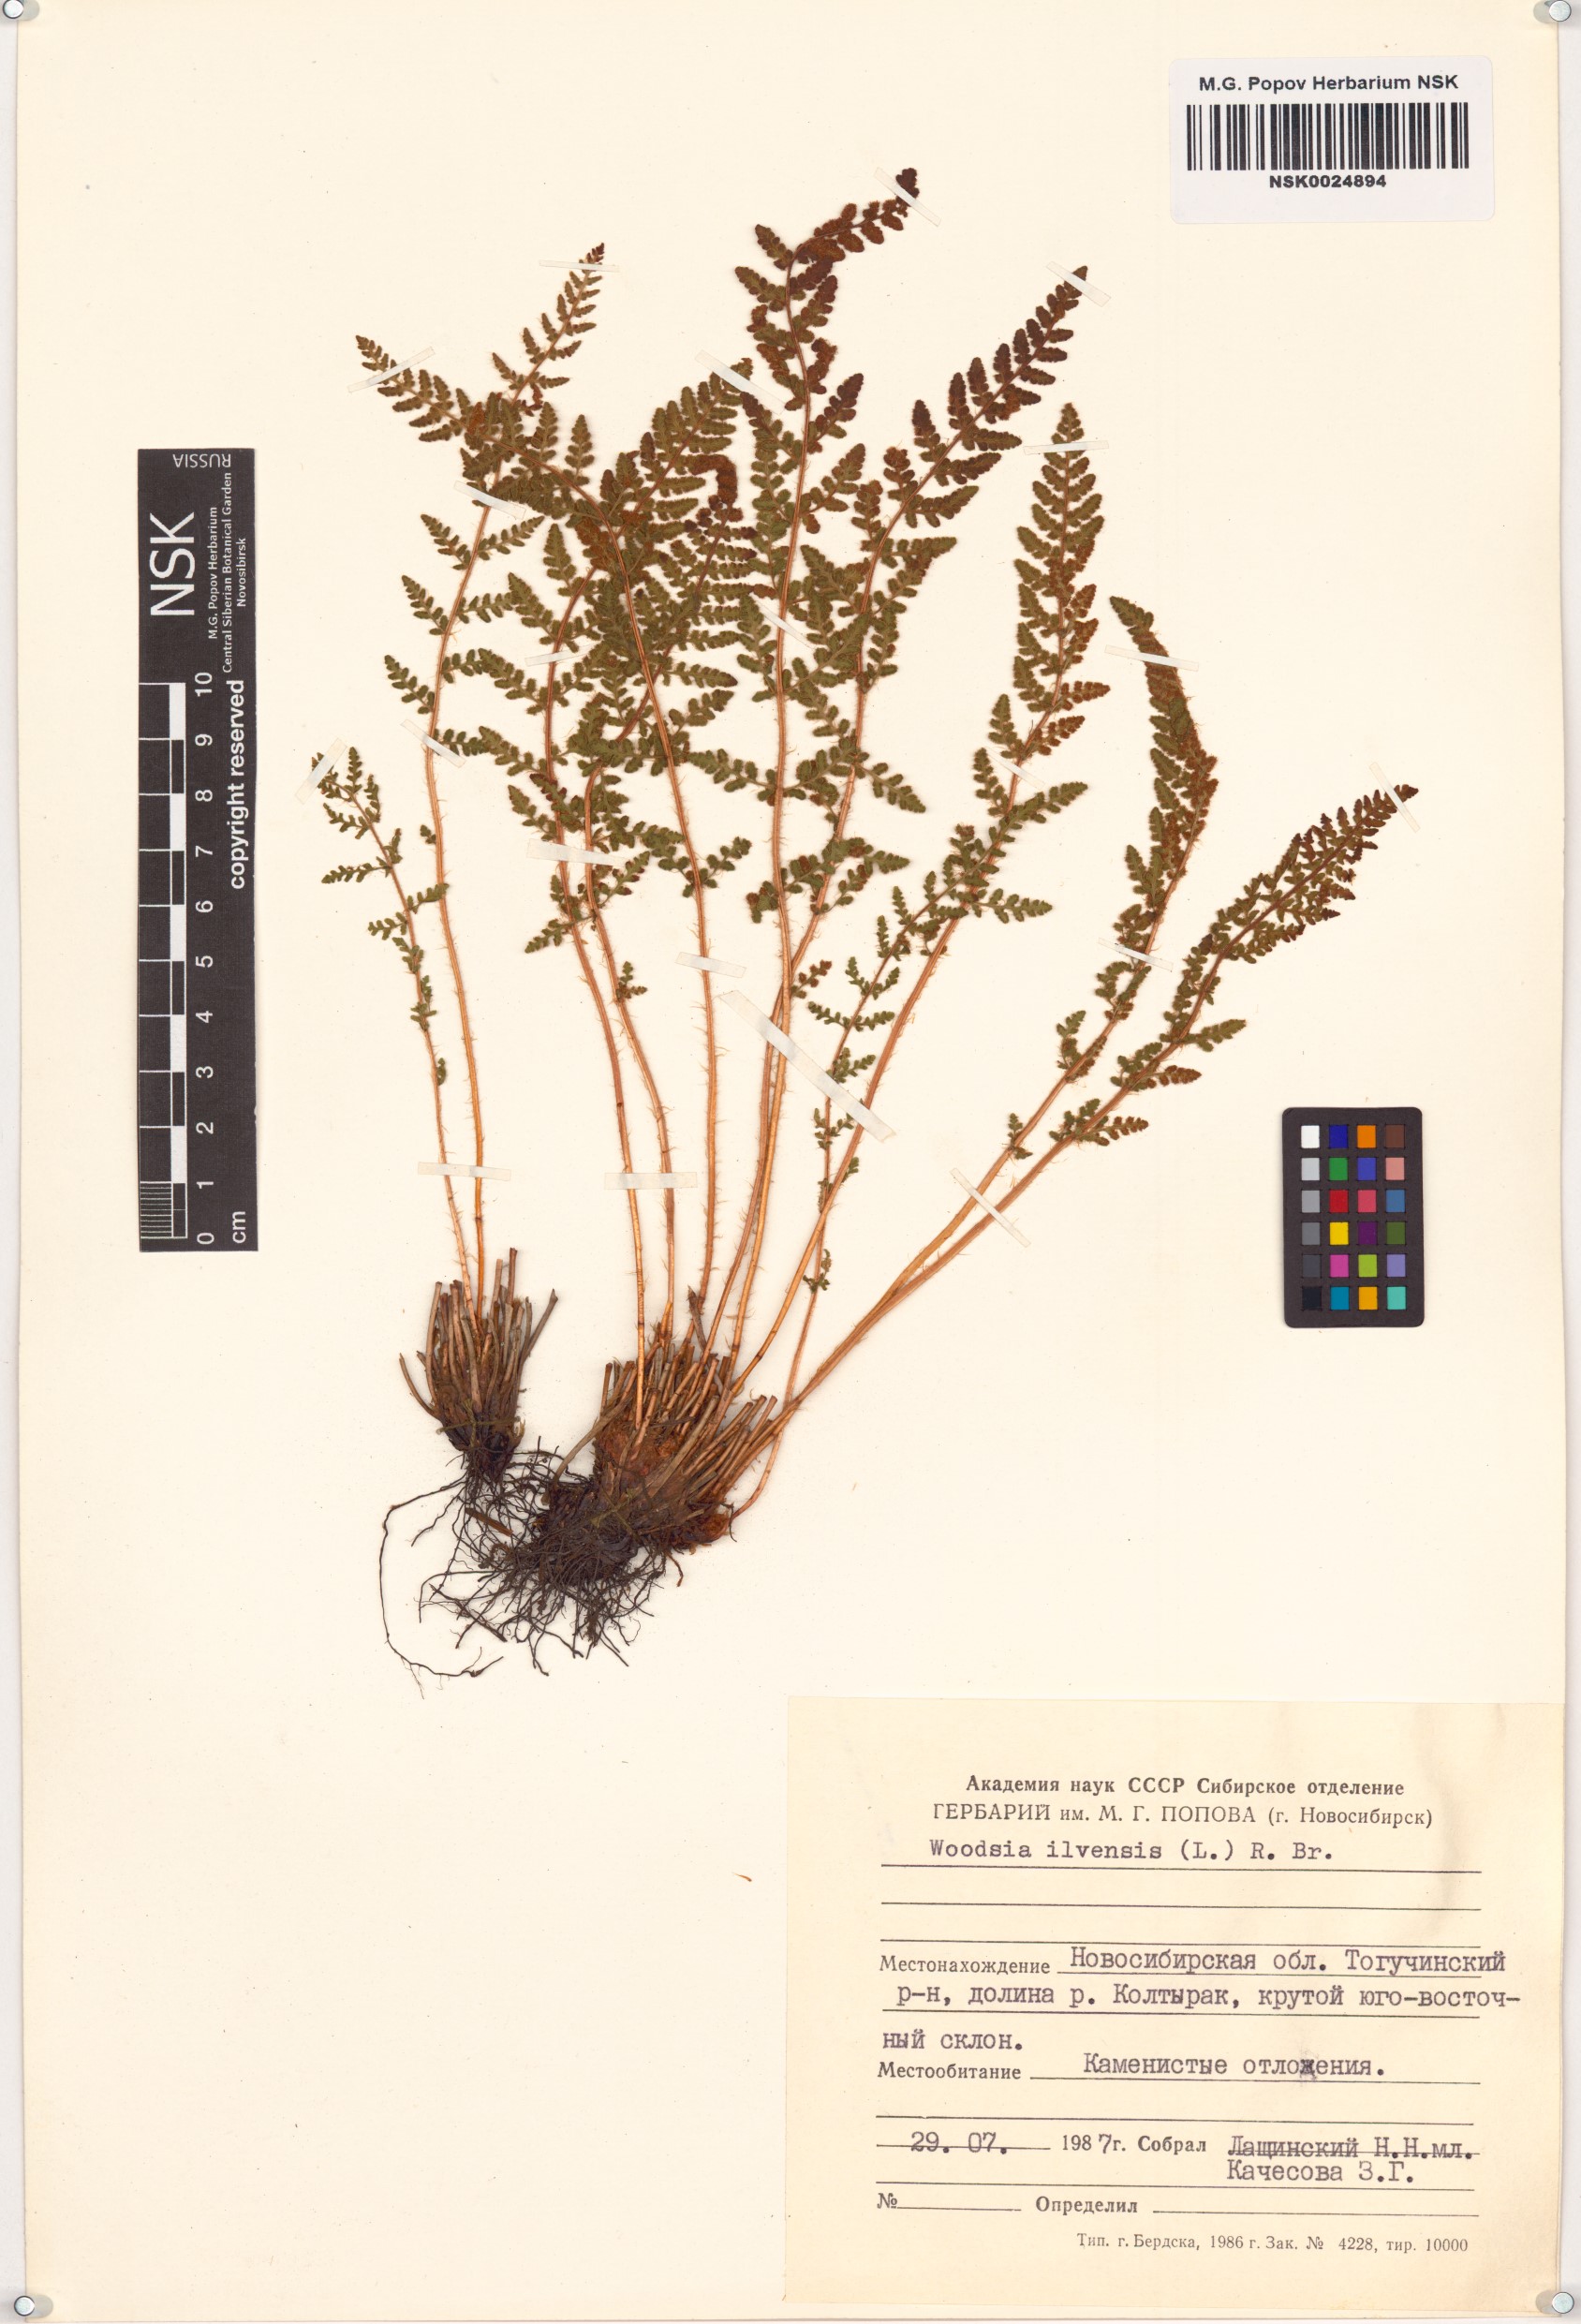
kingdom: Plantae
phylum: Tracheophyta
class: Polypodiopsida
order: Polypodiales
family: Woodsiaceae
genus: Woodsia
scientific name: Woodsia ilvensis
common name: Fragrant woodsia
